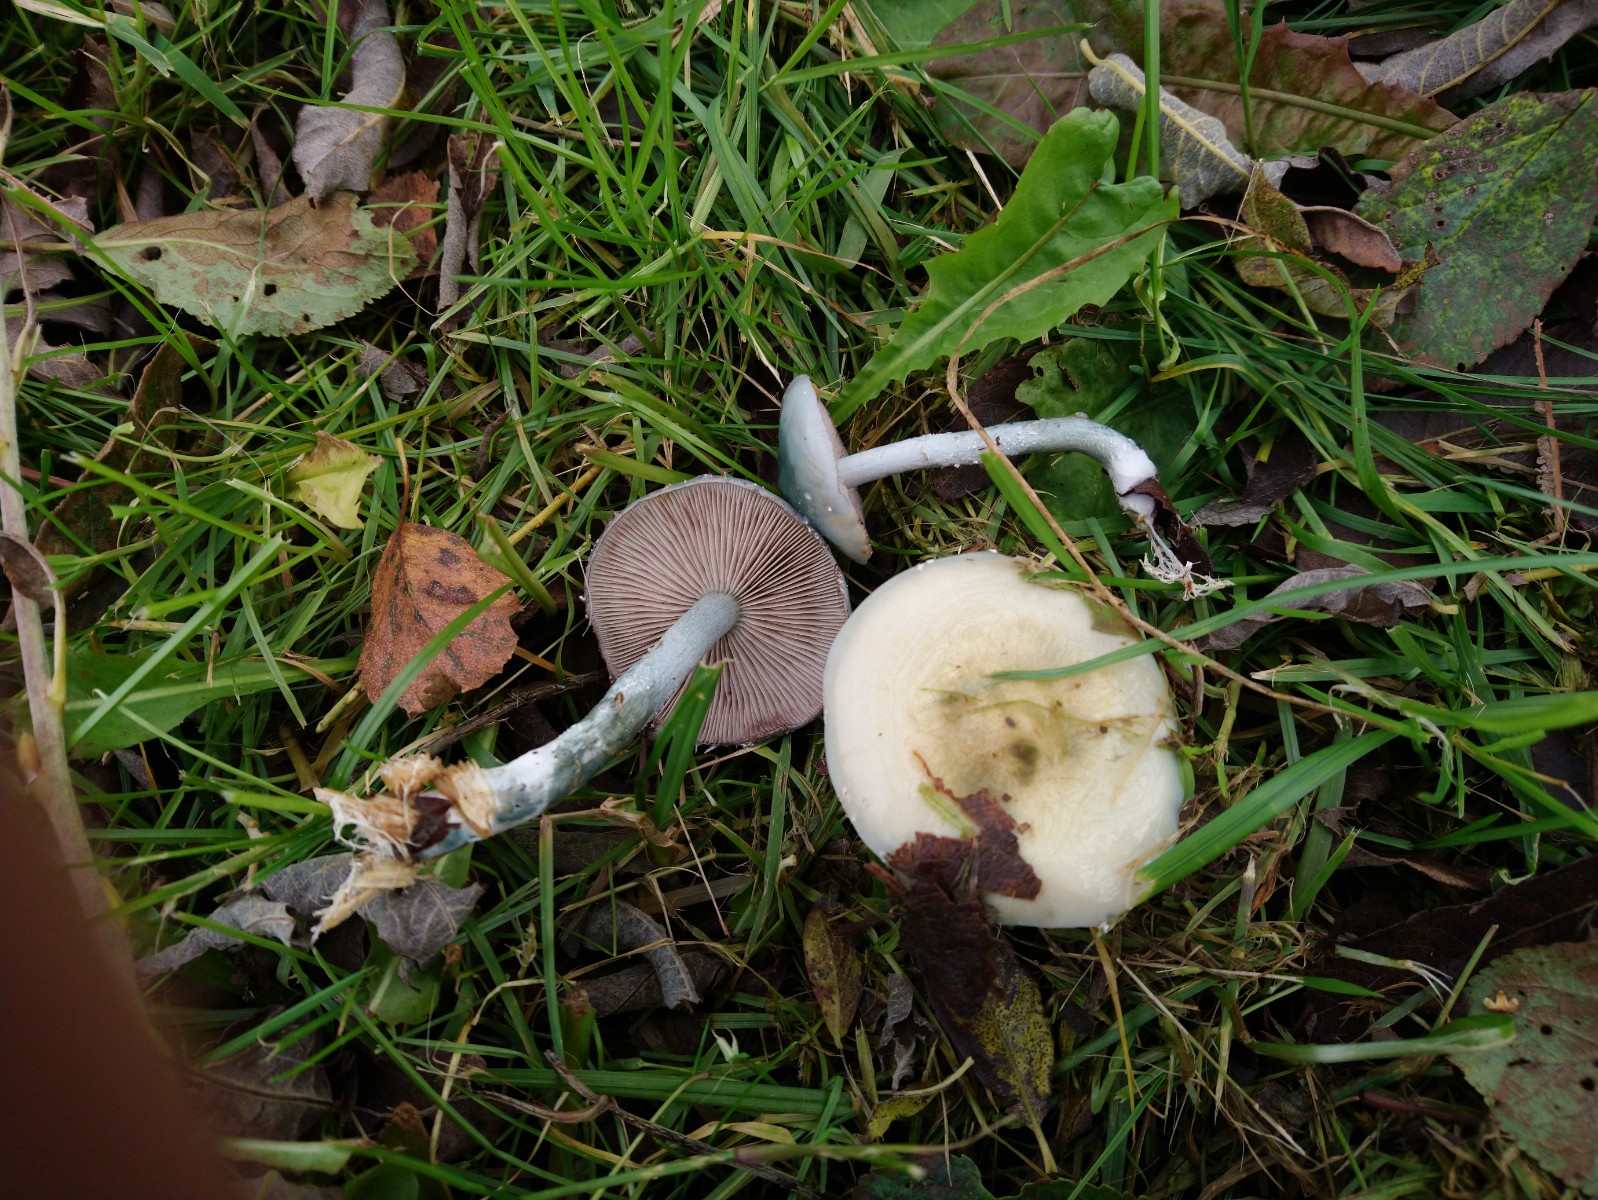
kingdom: Fungi
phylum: Basidiomycota
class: Agaricomycetes
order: Agaricales
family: Strophariaceae
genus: Stropharia
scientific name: Stropharia cyanea
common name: blågrøn bredblad
